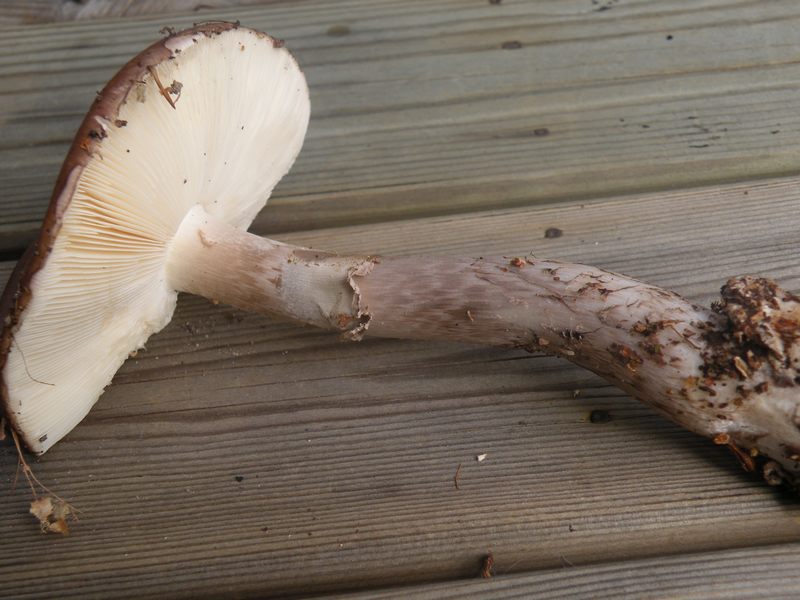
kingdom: Fungi
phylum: Basidiomycota
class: Agaricomycetes
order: Agaricales
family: Amanitaceae
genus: Amanita
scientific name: Amanita porphyria
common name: porfyr-fluesvamp
